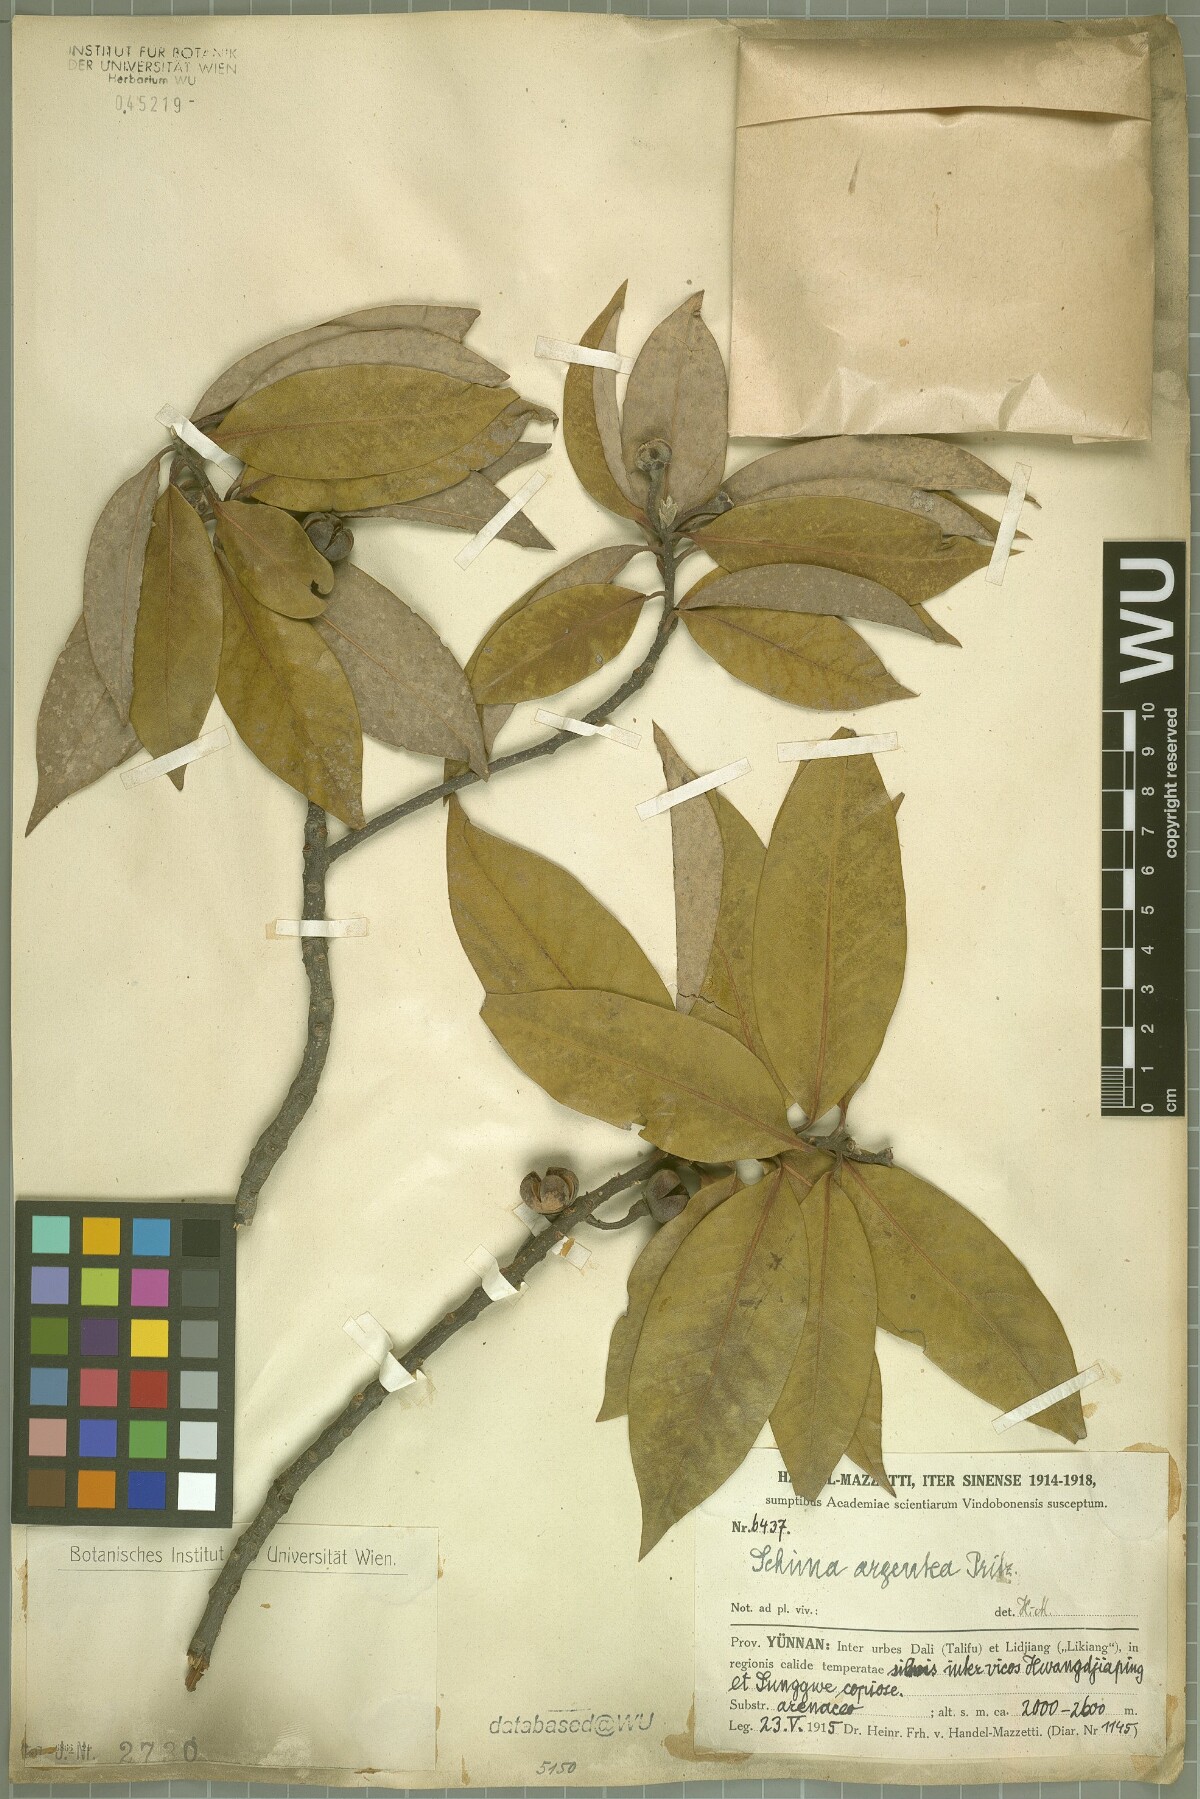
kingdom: Plantae
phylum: Tracheophyta
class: Magnoliopsida
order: Ericales
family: Theaceae
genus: Schima
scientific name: Schima argentea
